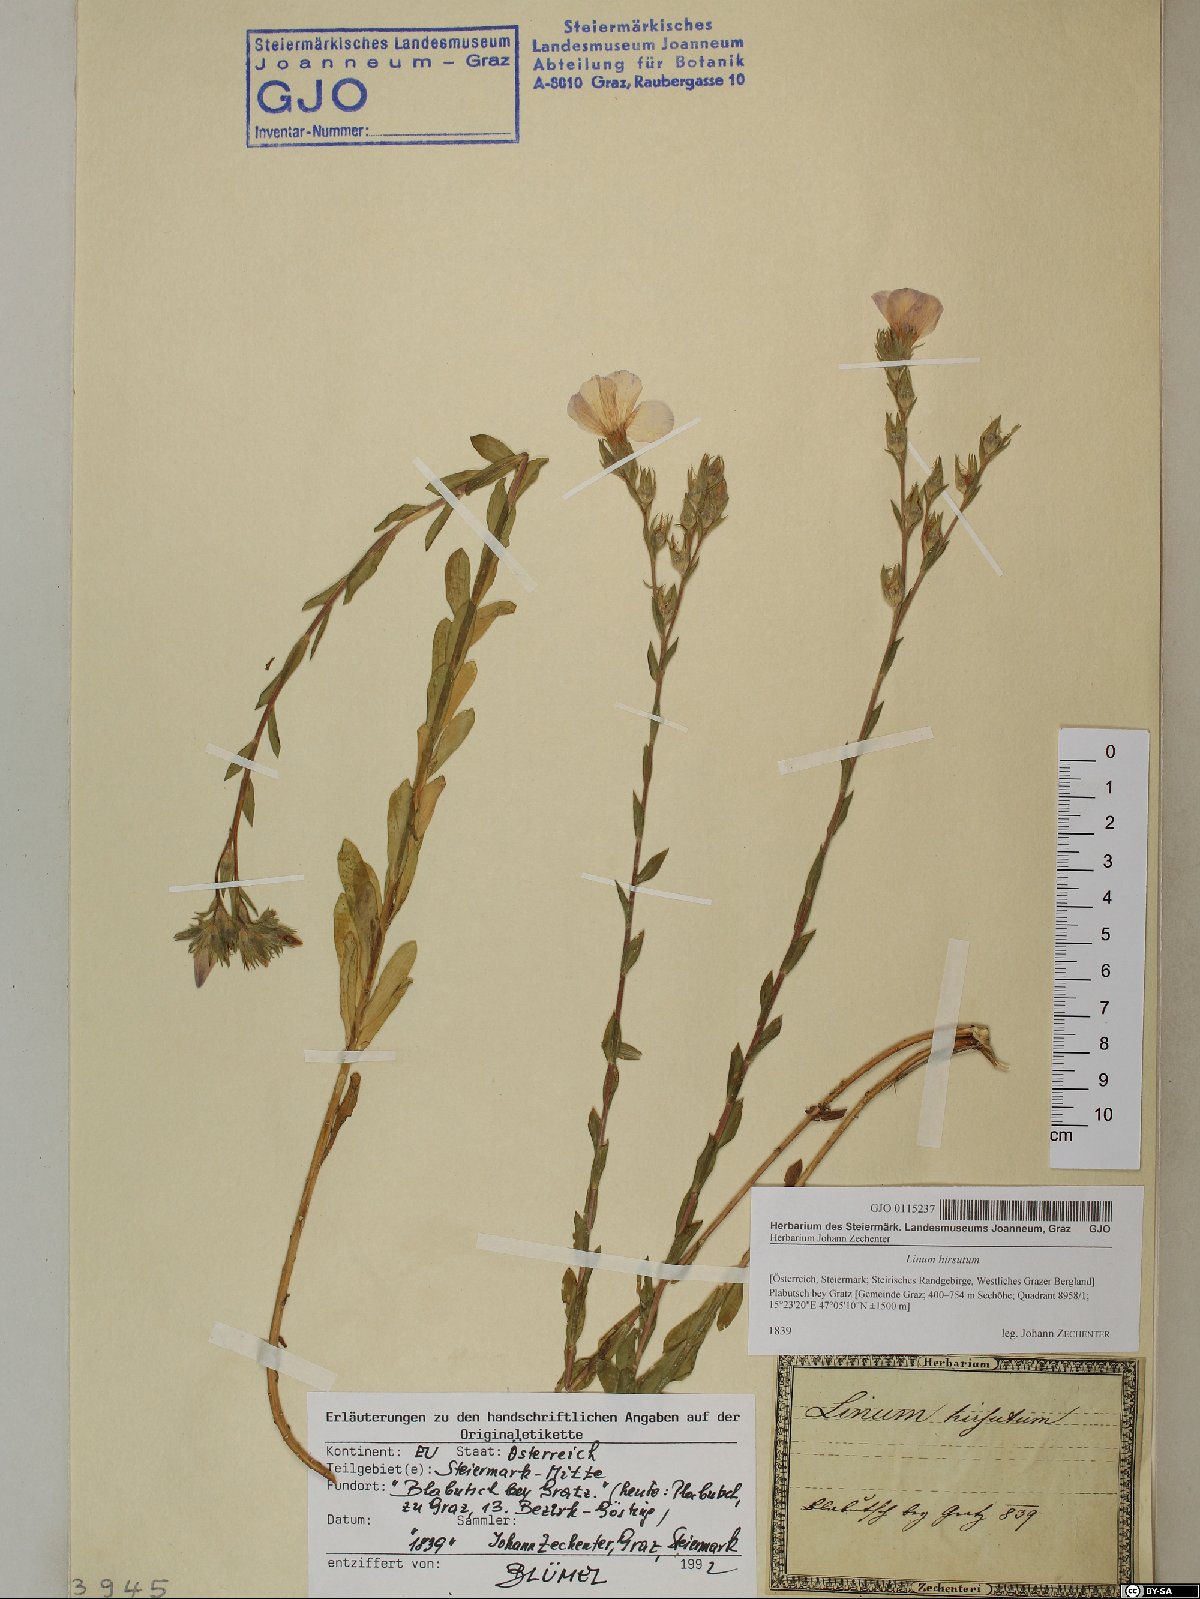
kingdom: Plantae
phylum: Tracheophyta
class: Magnoliopsida
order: Malpighiales
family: Linaceae
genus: Linum
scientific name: Linum hirsutum
